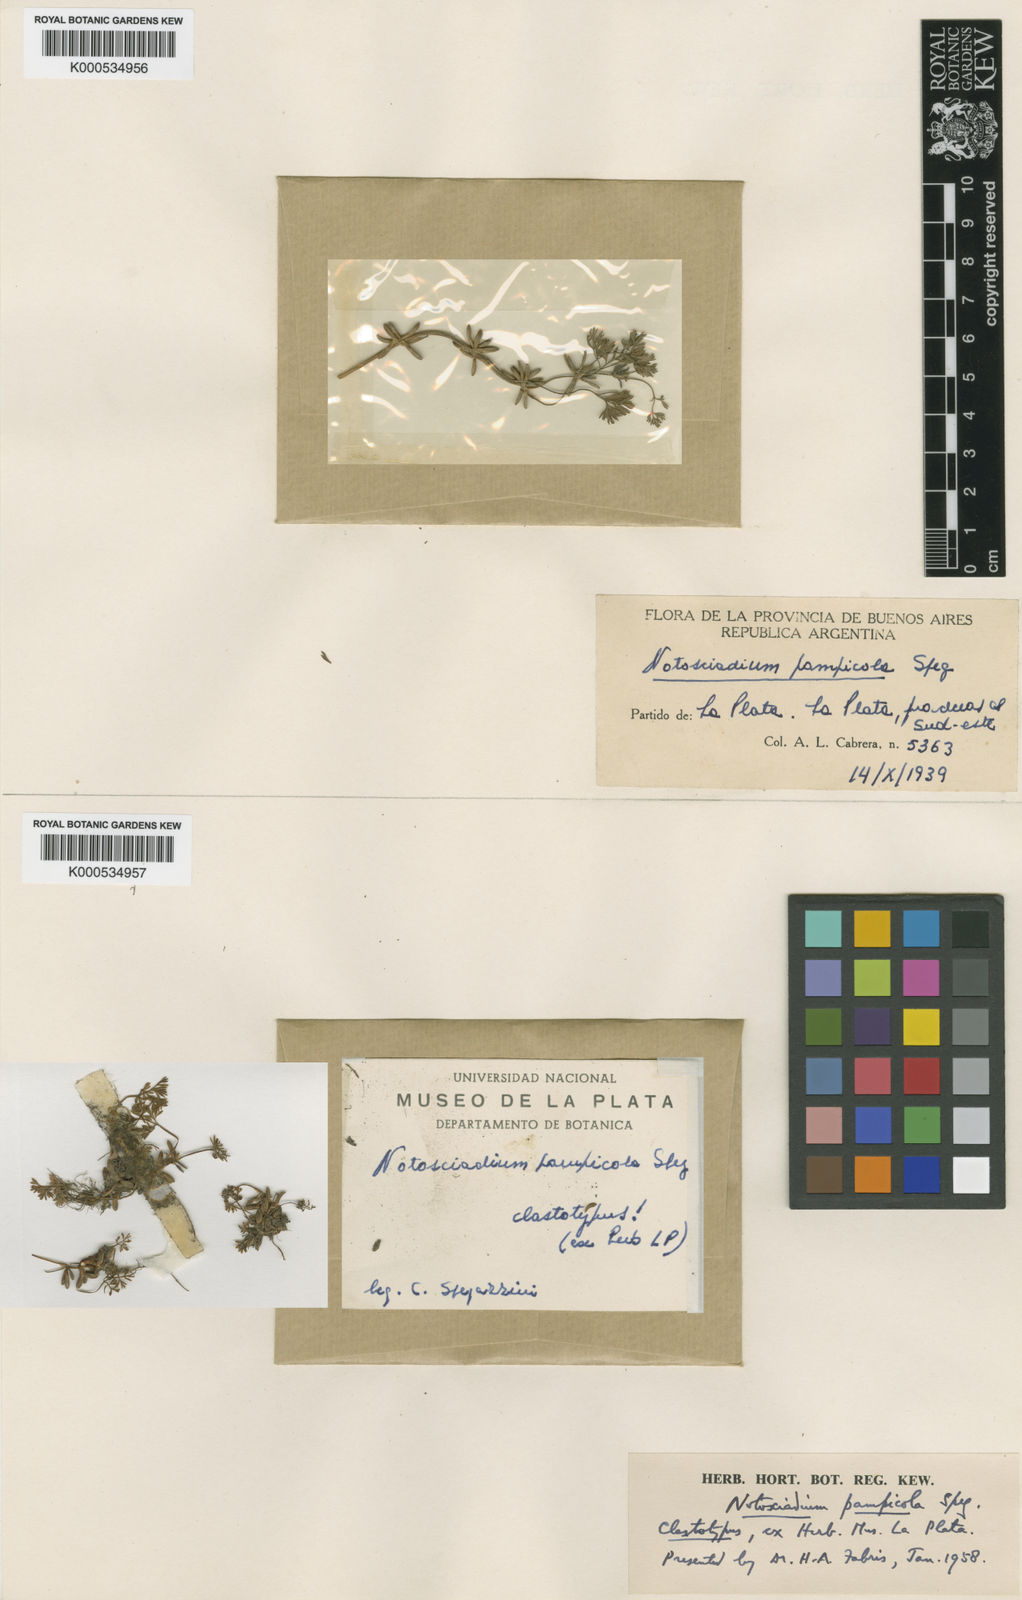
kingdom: Plantae
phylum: Tracheophyta
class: Magnoliopsida
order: Apiales
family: Apiaceae
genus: Notiosciadium
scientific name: Notiosciadium pampicola
